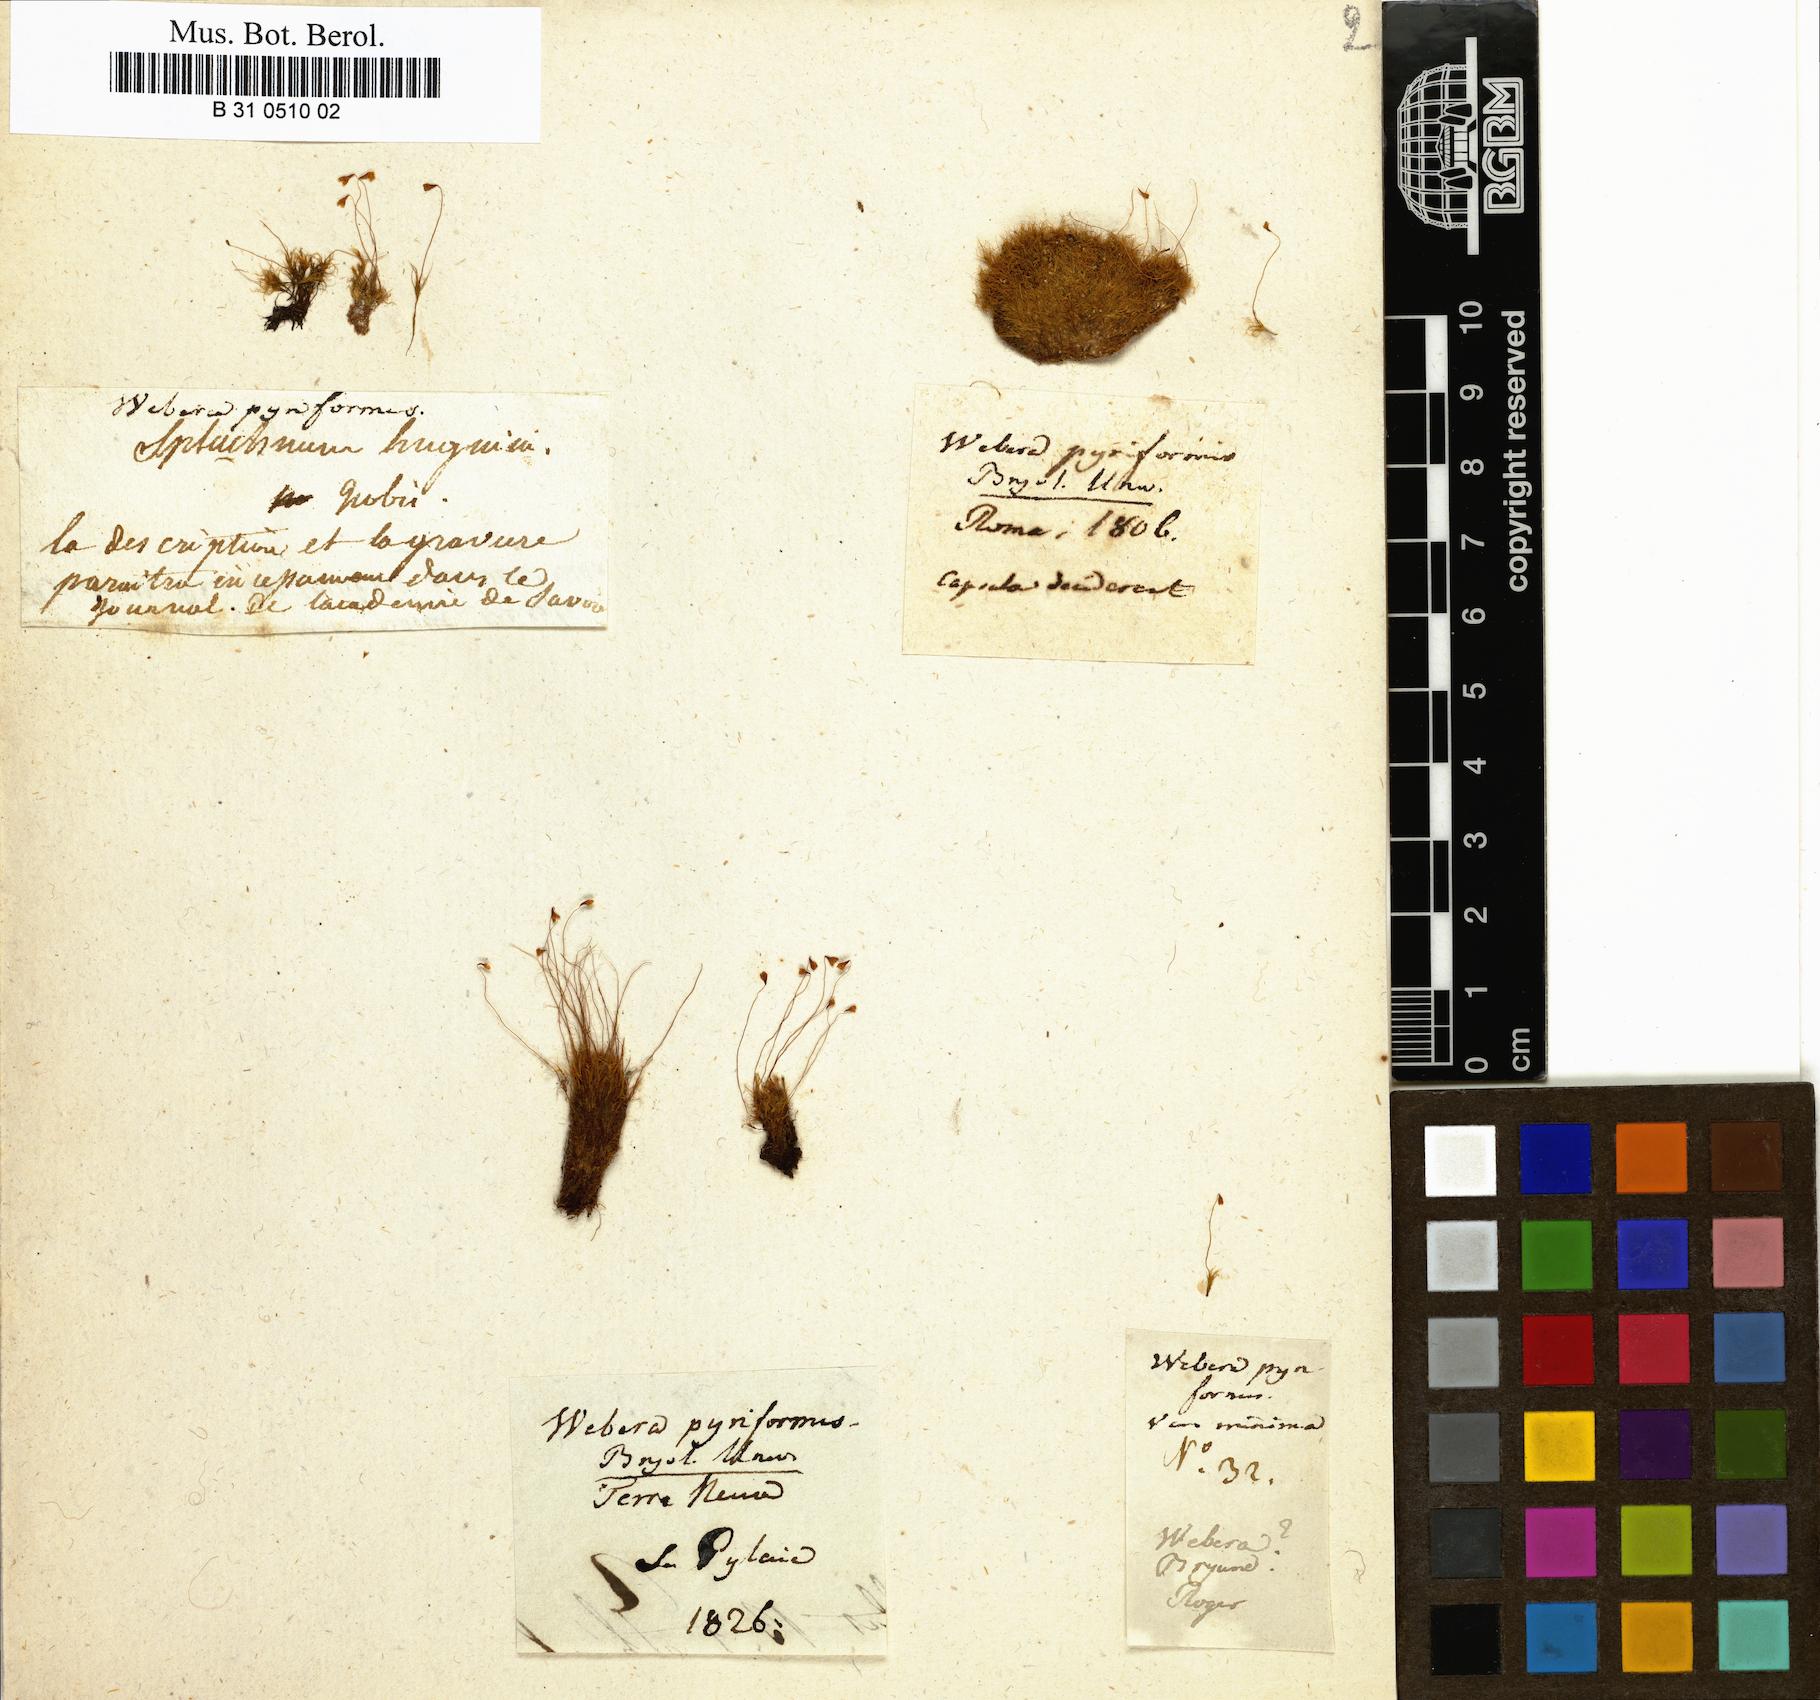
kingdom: Plantae
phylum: Bryophyta
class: Bryopsida
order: Splachnales
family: Meesiaceae
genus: Leptobryum
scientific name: Leptobryum pyriforme
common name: Golden thread moss
